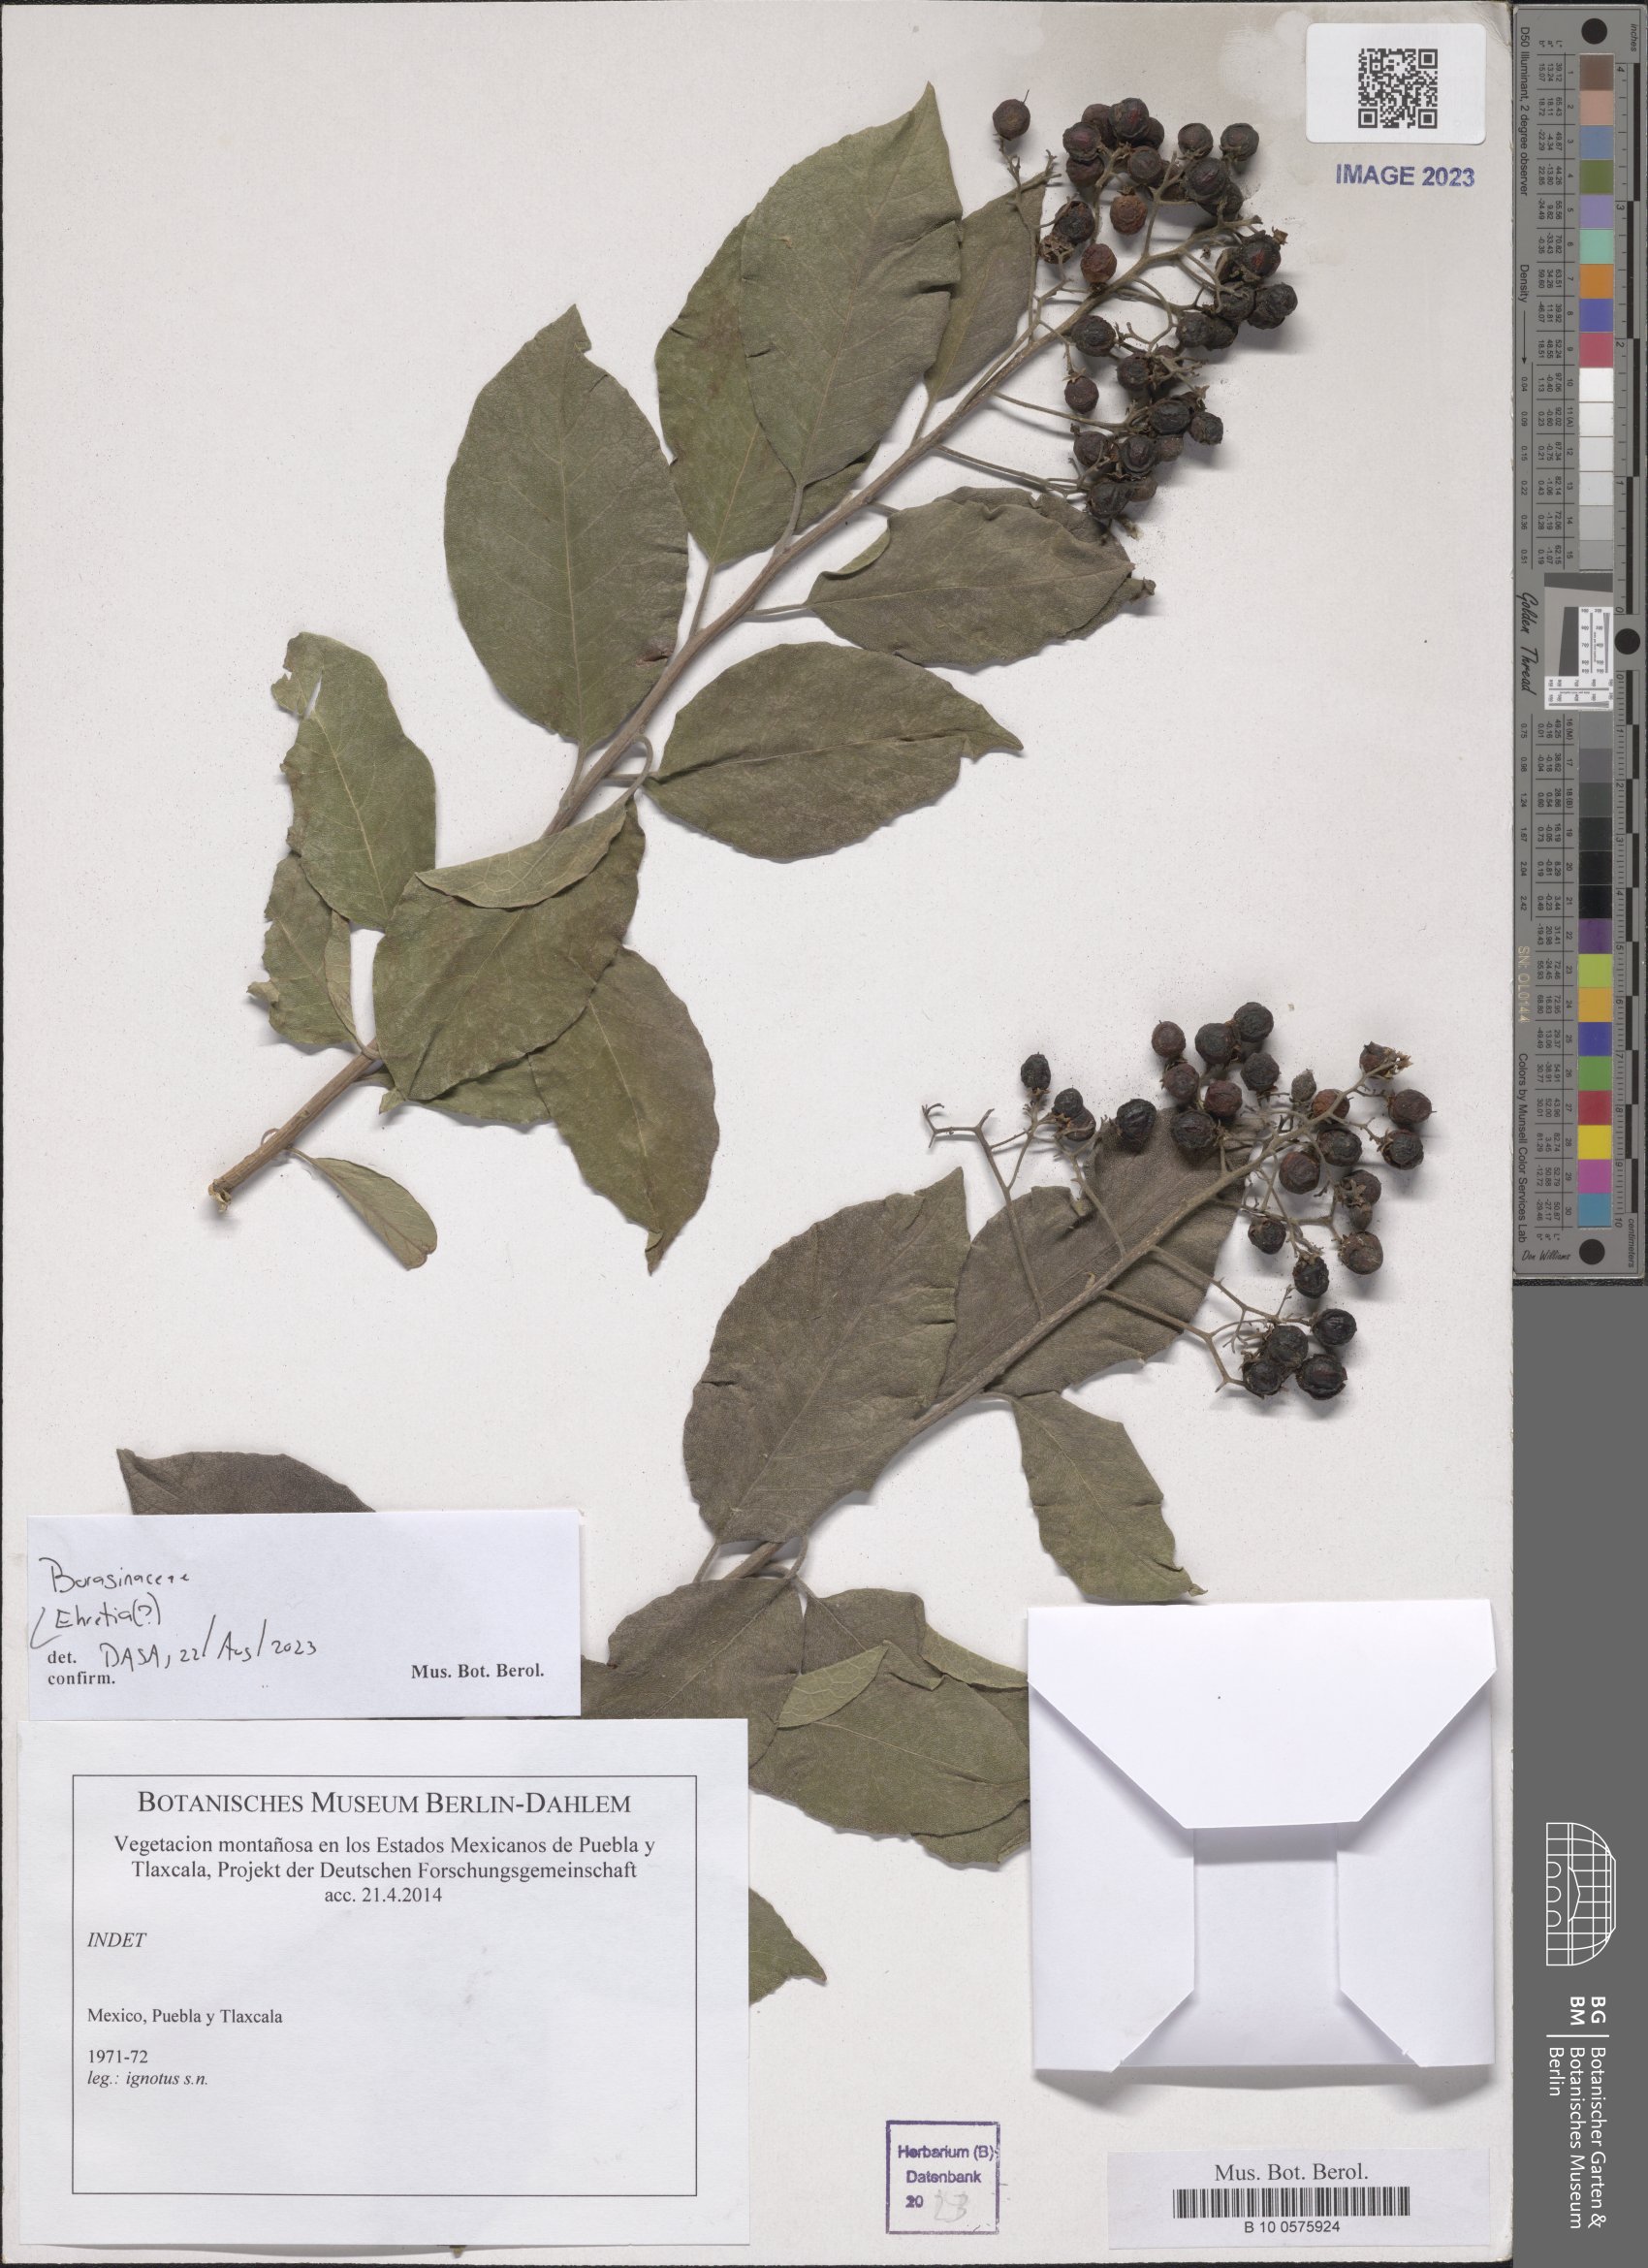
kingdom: Plantae
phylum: Tracheophyta
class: Magnoliopsida
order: Boraginales
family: Ehretiaceae
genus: Ehretia
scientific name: Ehretia
